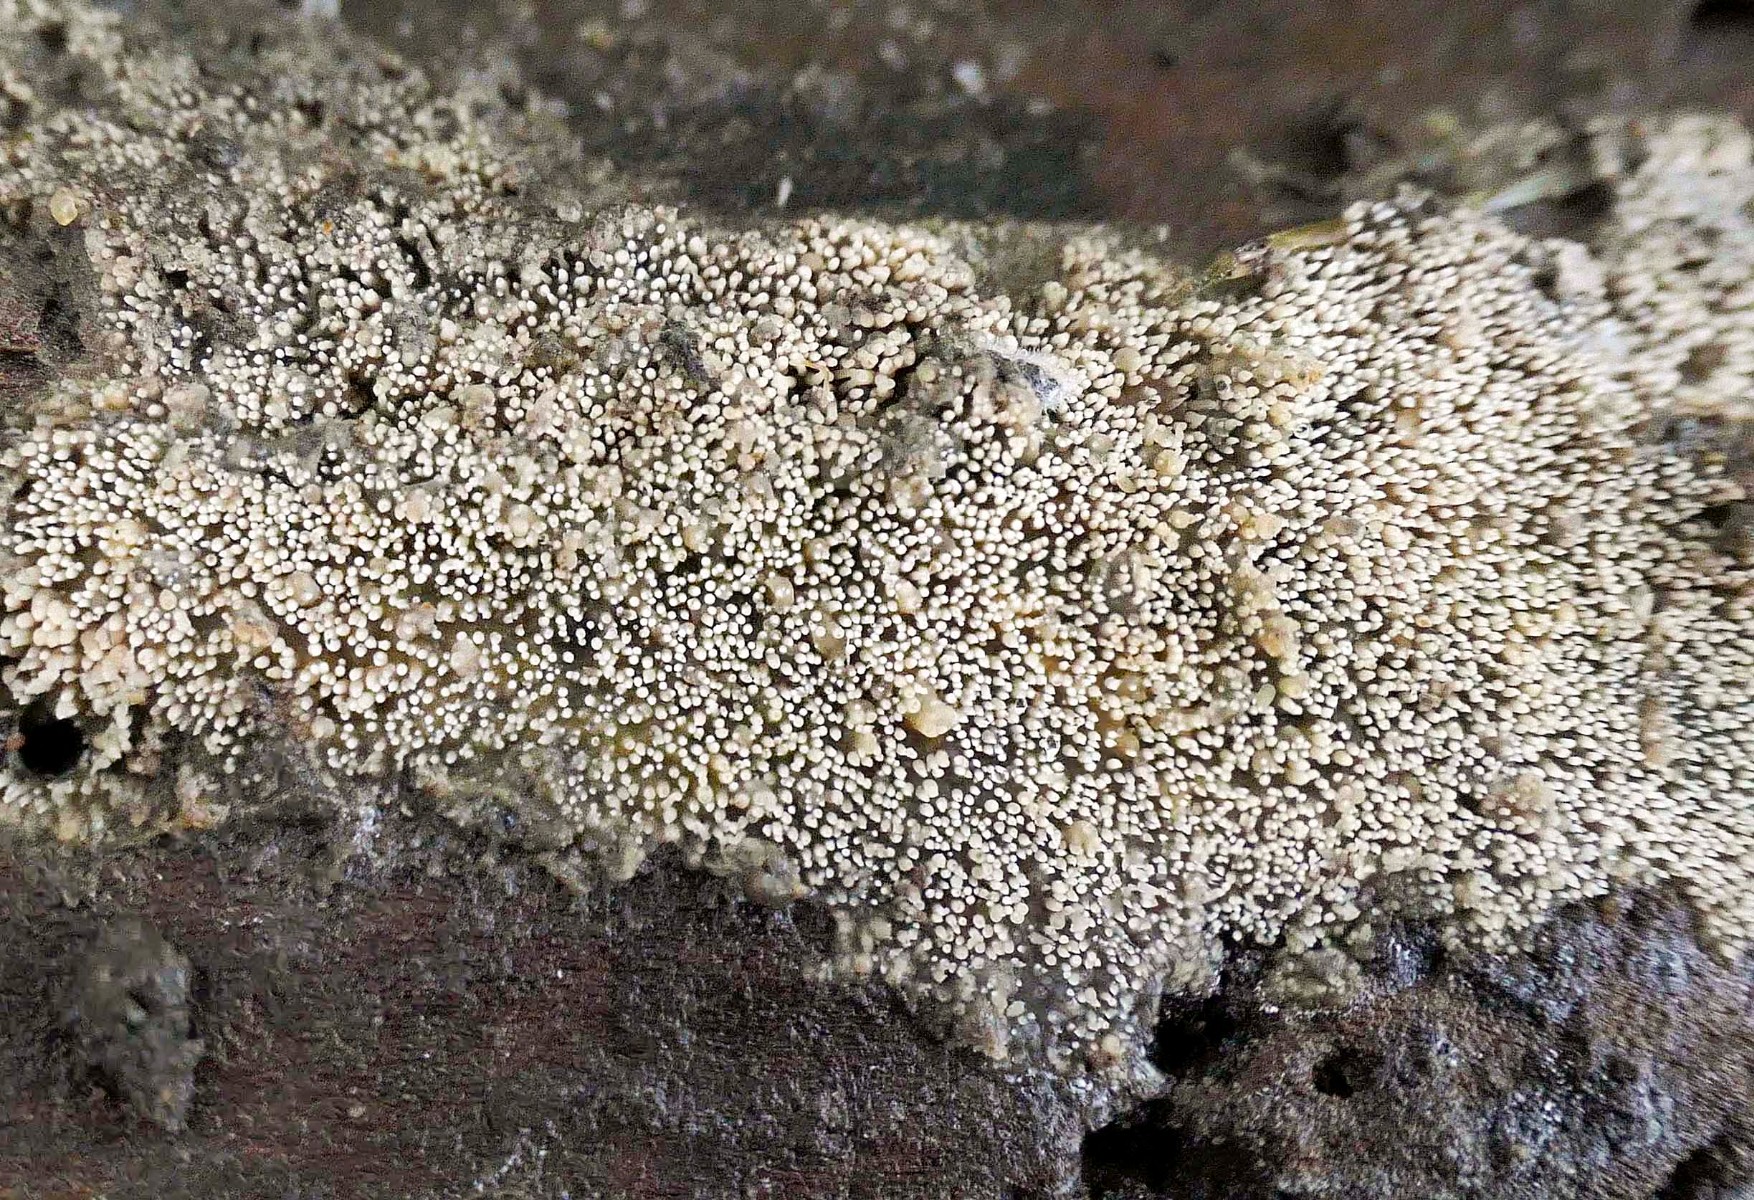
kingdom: Fungi
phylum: Basidiomycota
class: Agaricomycetes
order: Polyporales
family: Meruliaceae
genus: Mycoacia
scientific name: Mycoacia uda
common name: citrongul vokspig
